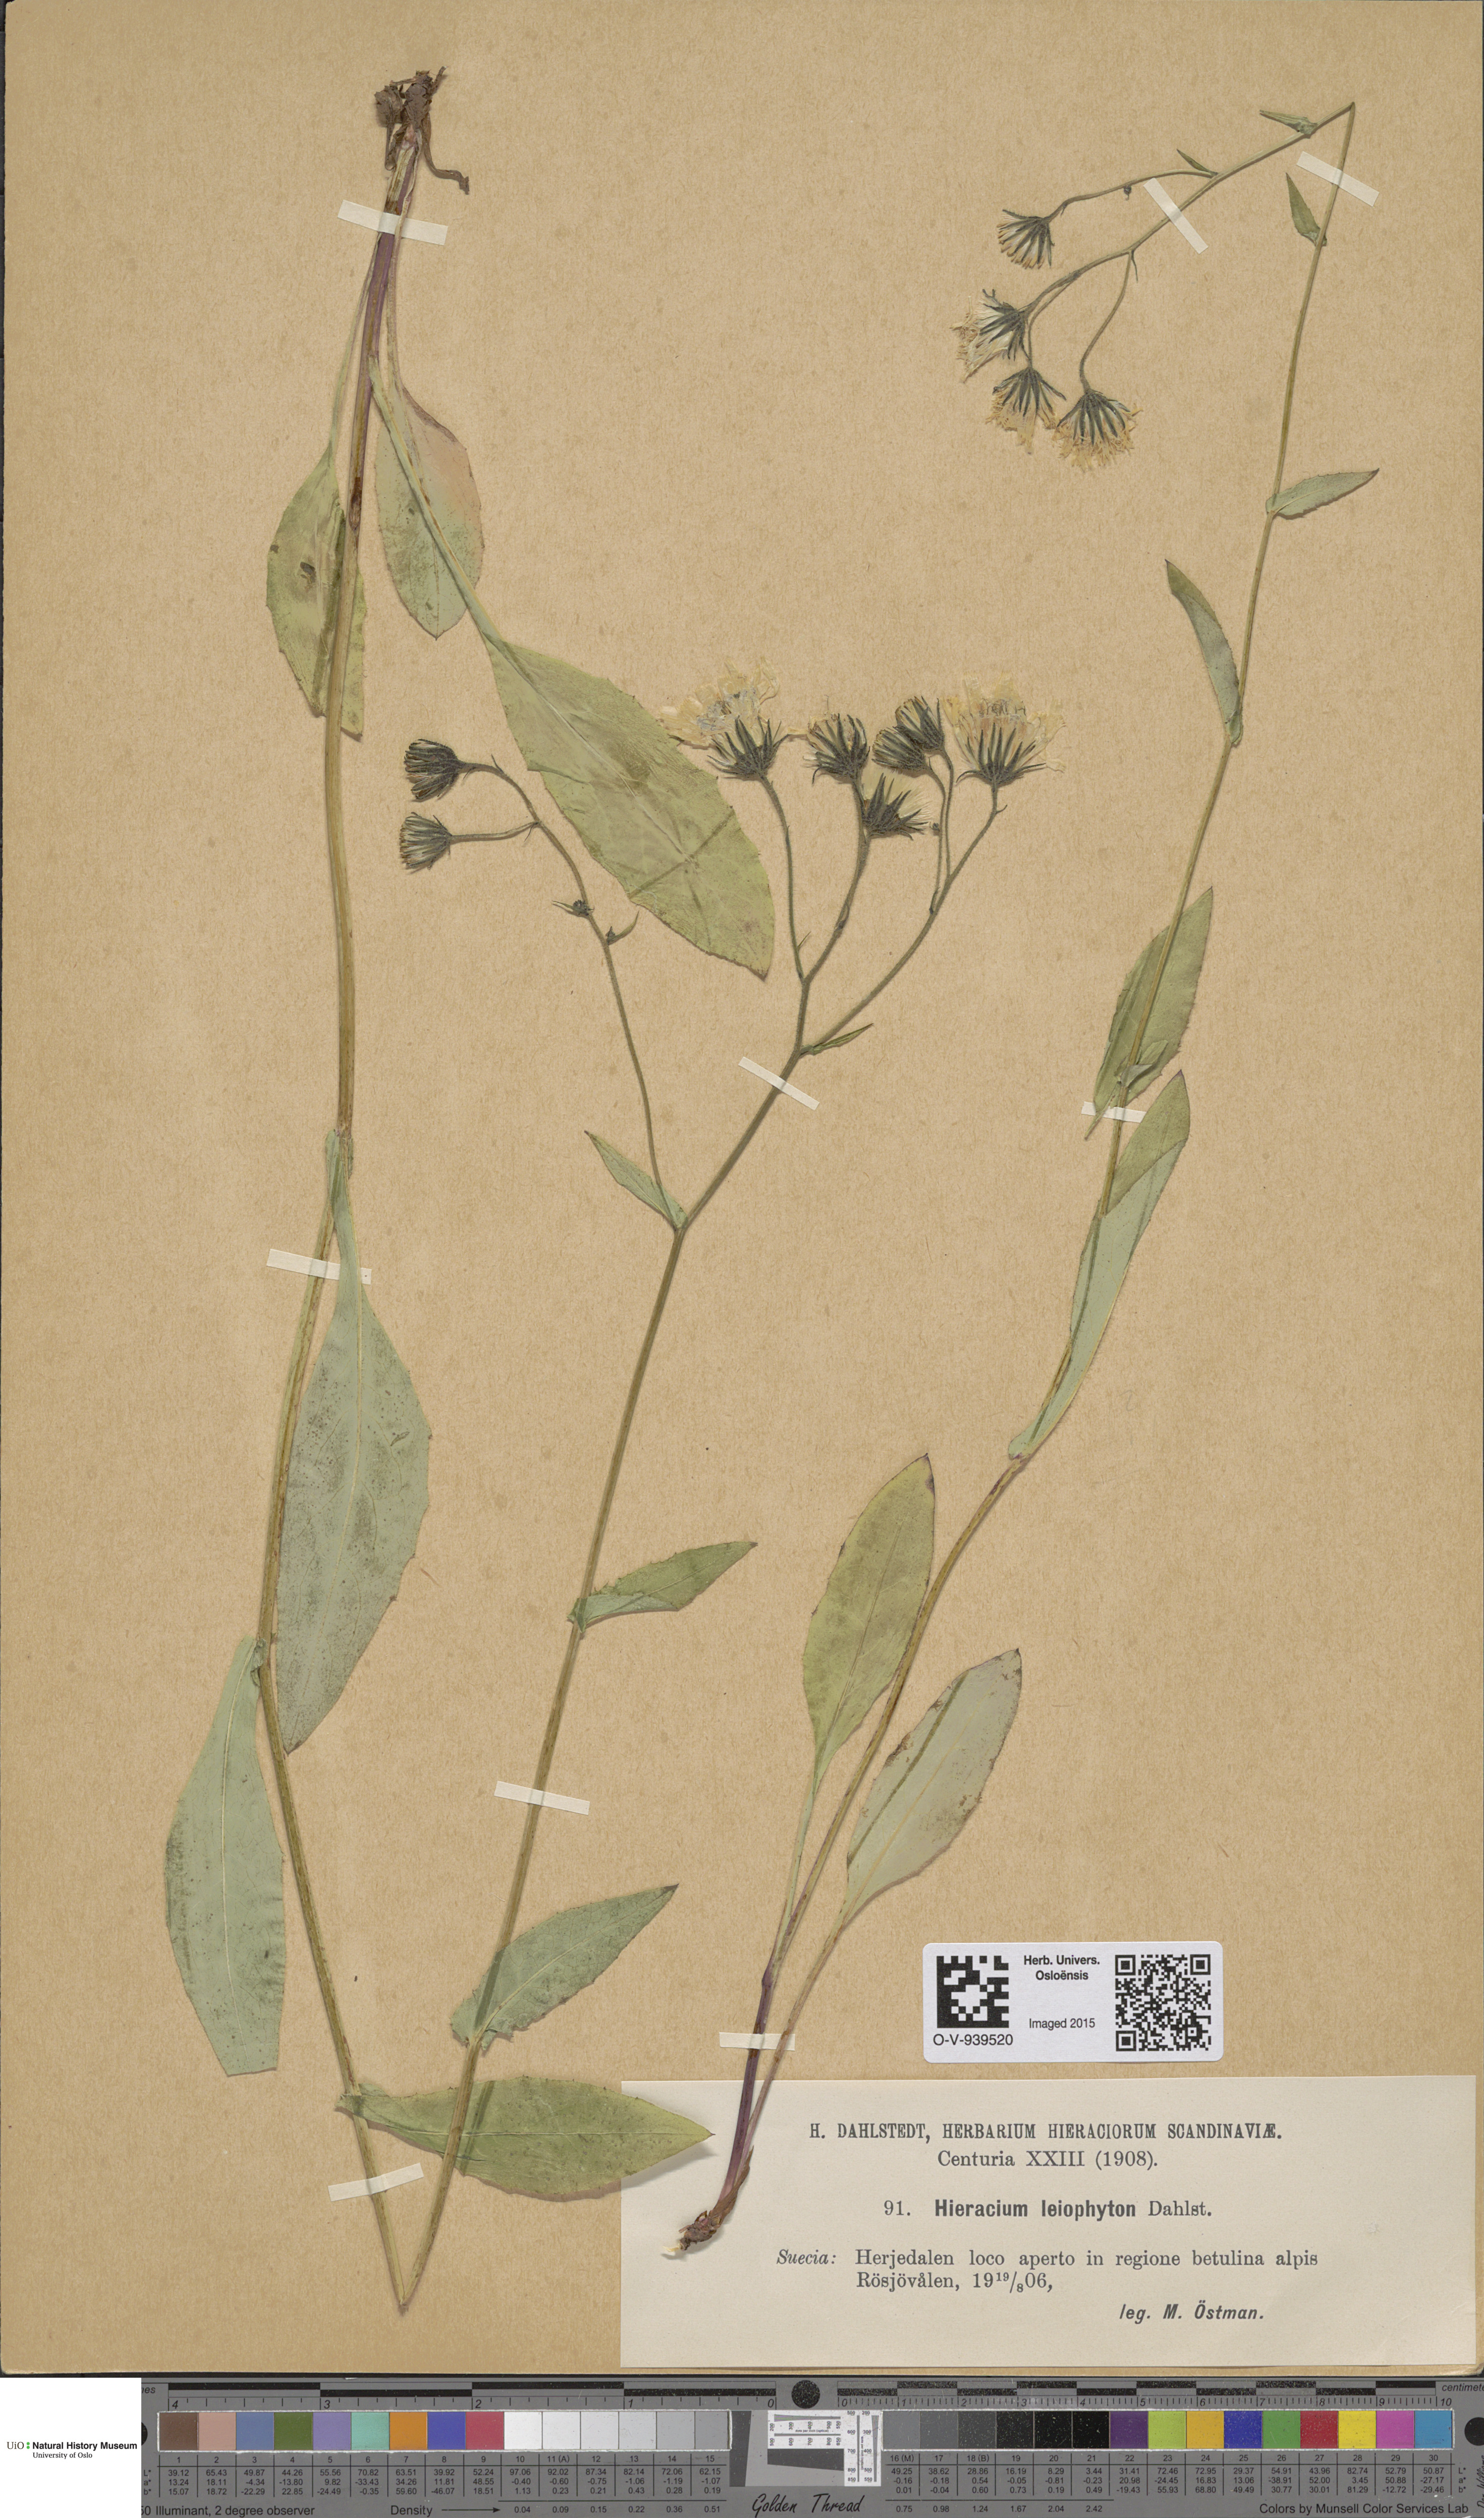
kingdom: Plantae
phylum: Tracheophyta
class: Magnoliopsida
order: Asterales
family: Asteraceae
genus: Hieracium
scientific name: Hieracium dovrense
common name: Dovre hawkweed
